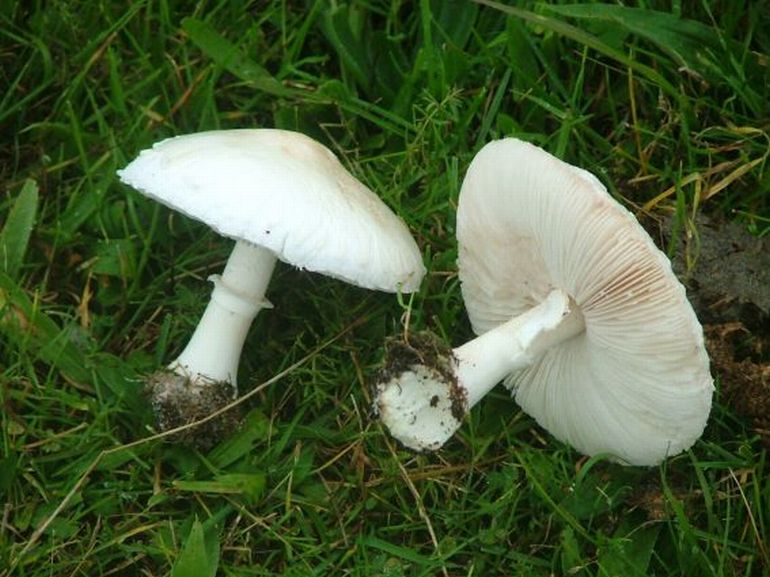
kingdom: Fungi
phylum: Basidiomycota
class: Agaricomycetes
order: Agaricales
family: Agaricaceae
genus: Leucoagaricus
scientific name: Leucoagaricus leucothites
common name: rosabladet silkehat
